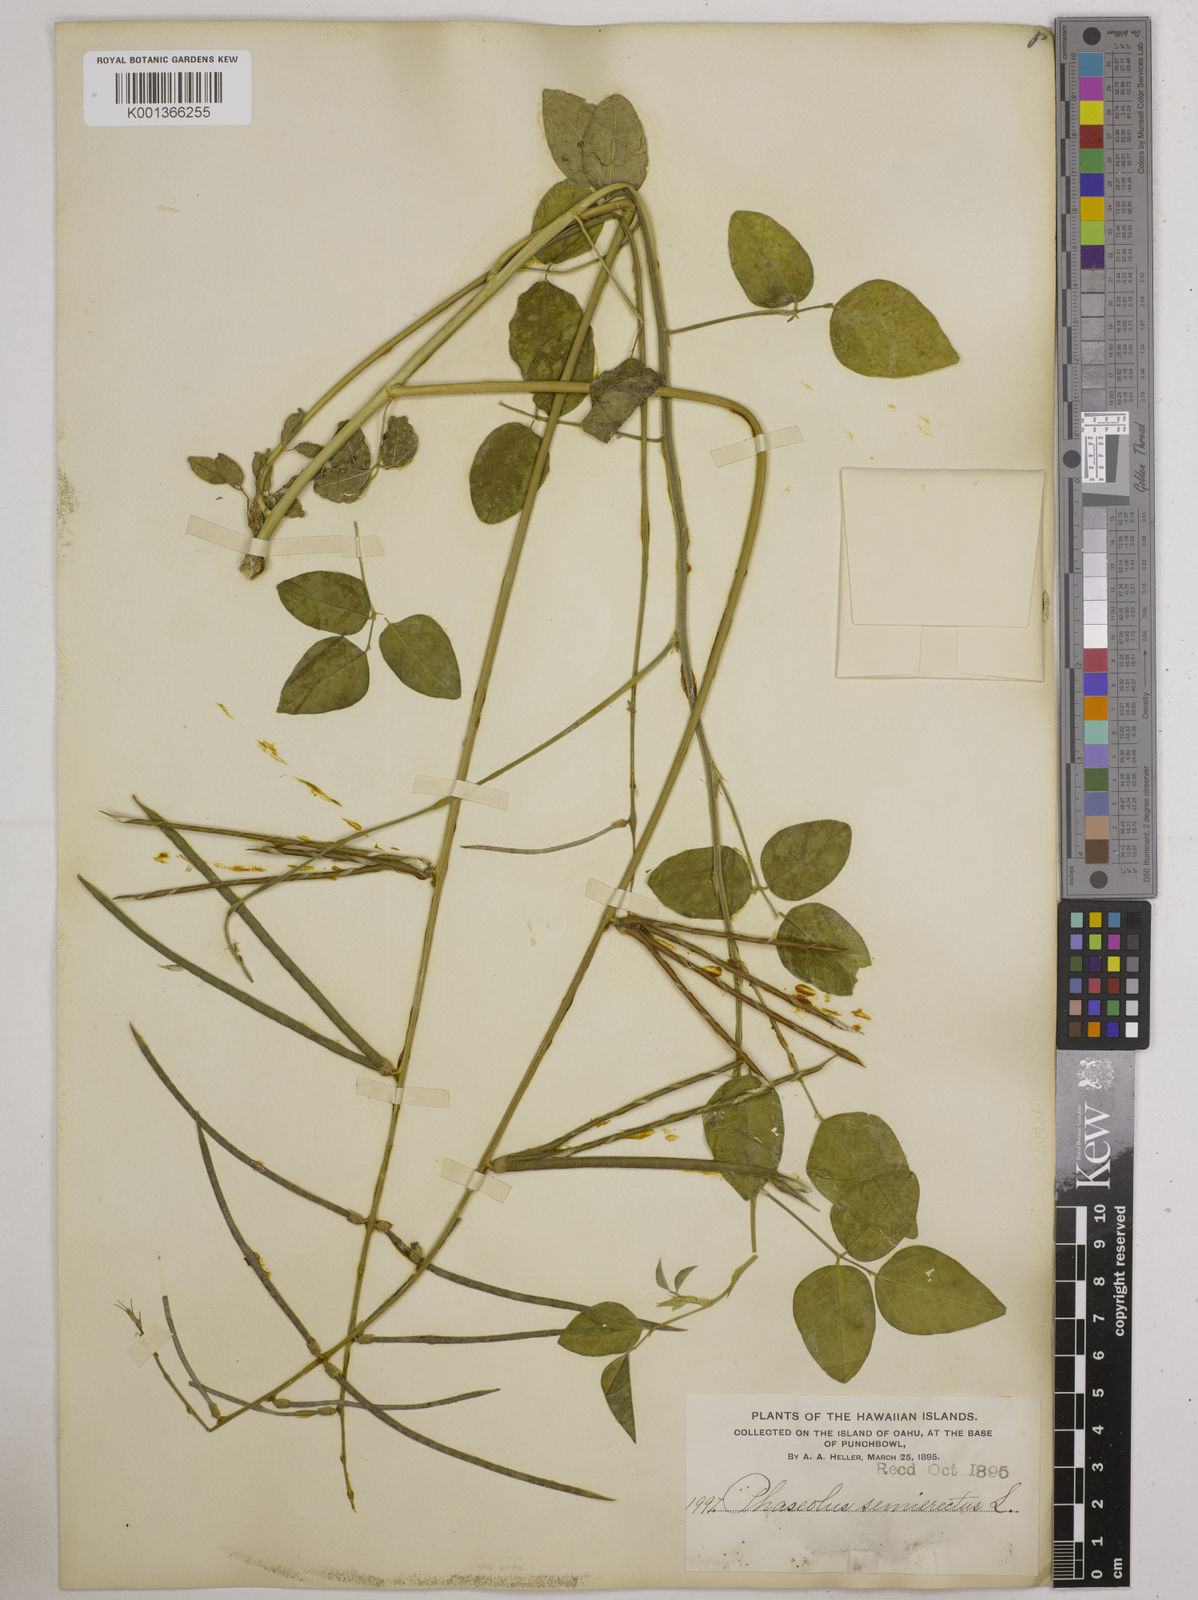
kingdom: Plantae
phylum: Tracheophyta
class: Magnoliopsida
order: Fabales
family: Fabaceae
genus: Macroptilium
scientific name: Macroptilium lathyroides
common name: Wild bushbean
